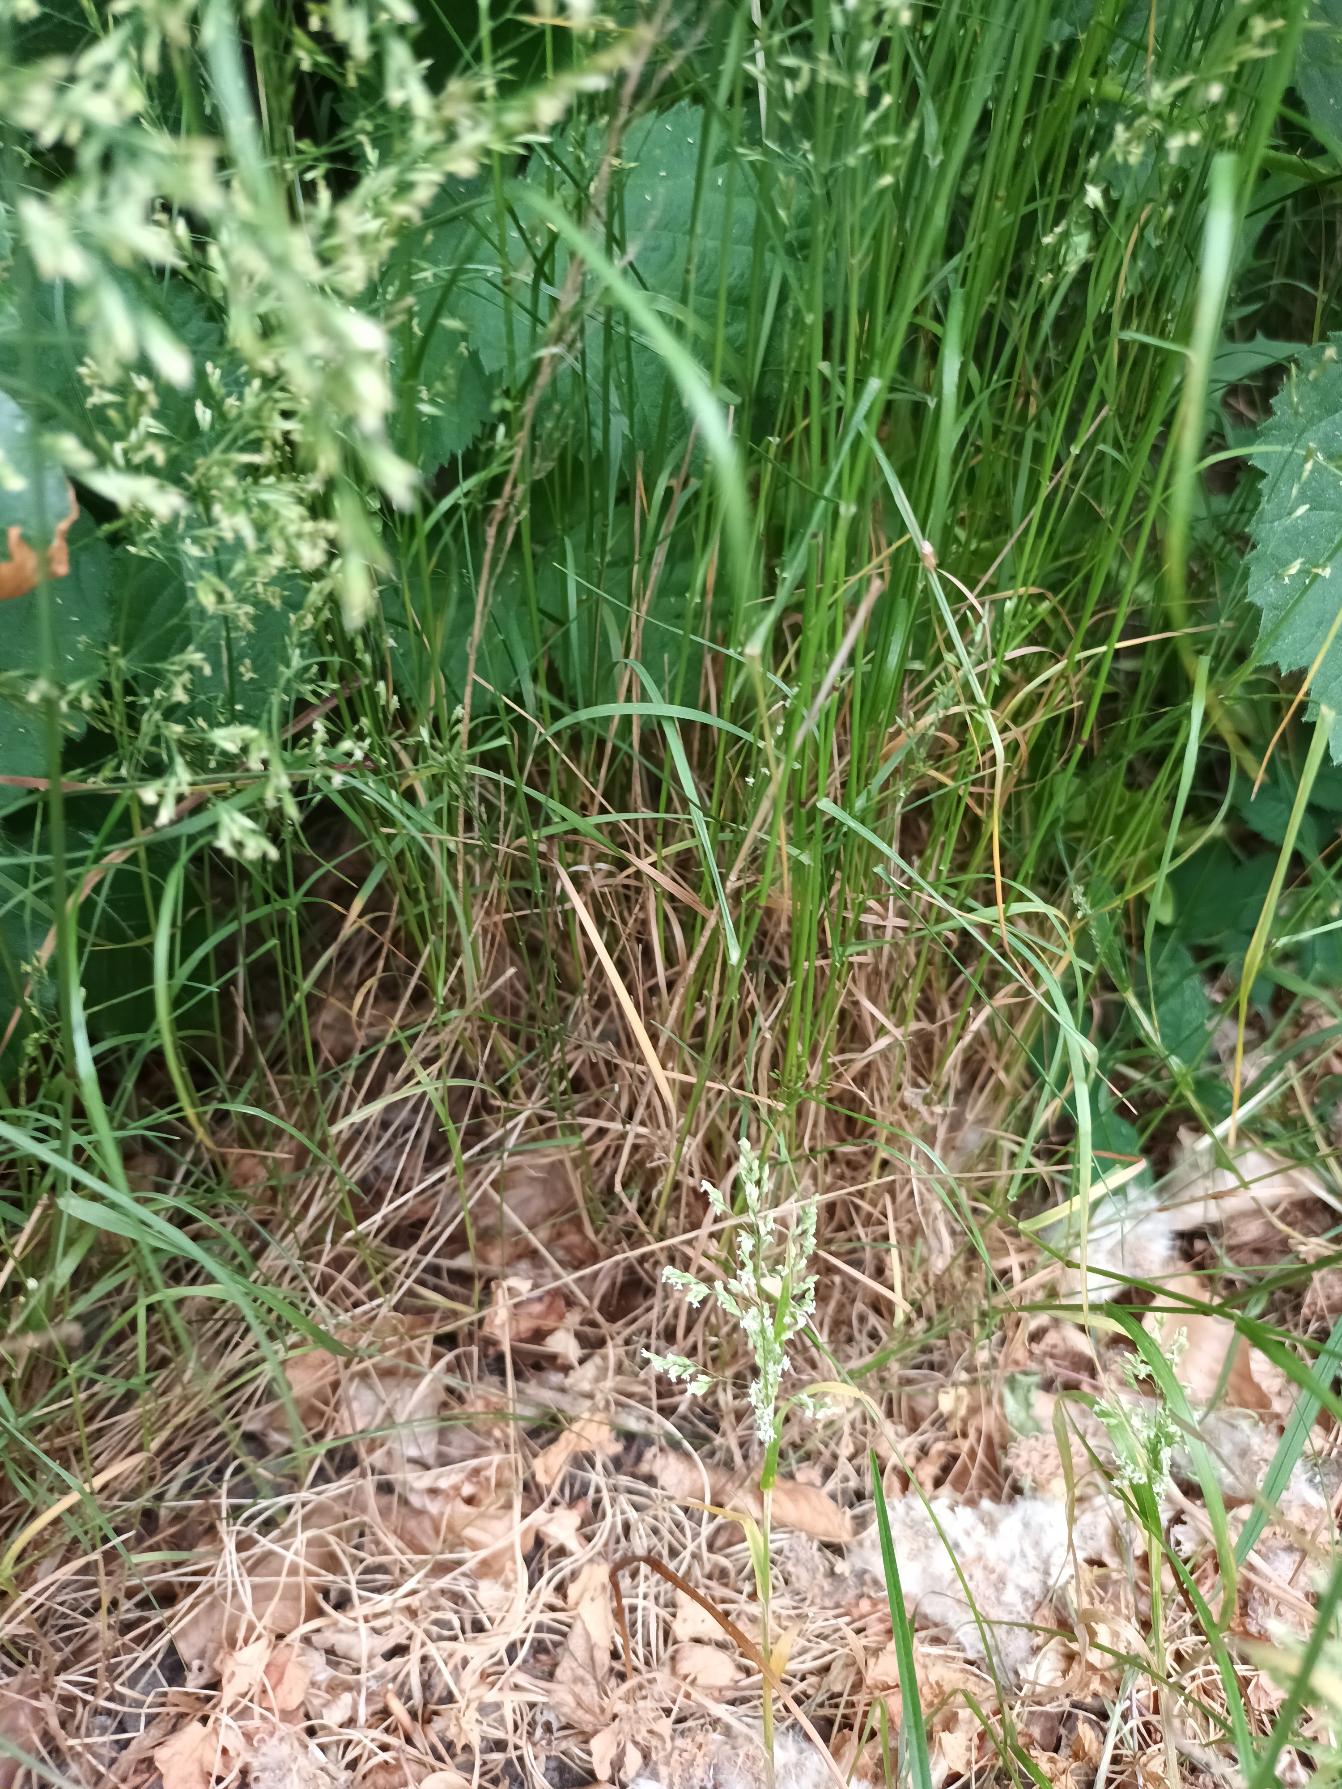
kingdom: Plantae
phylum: Tracheophyta
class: Liliopsida
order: Poales
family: Poaceae
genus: Poa
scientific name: Poa nemoralis
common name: Lund-rapgræs
